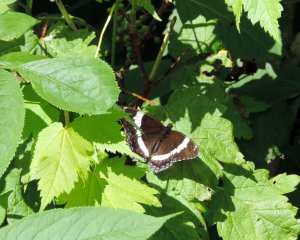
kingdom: Animalia
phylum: Arthropoda
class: Insecta
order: Lepidoptera
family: Nymphalidae
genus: Limenitis
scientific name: Limenitis arthemis
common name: Red-spotted Admiral
